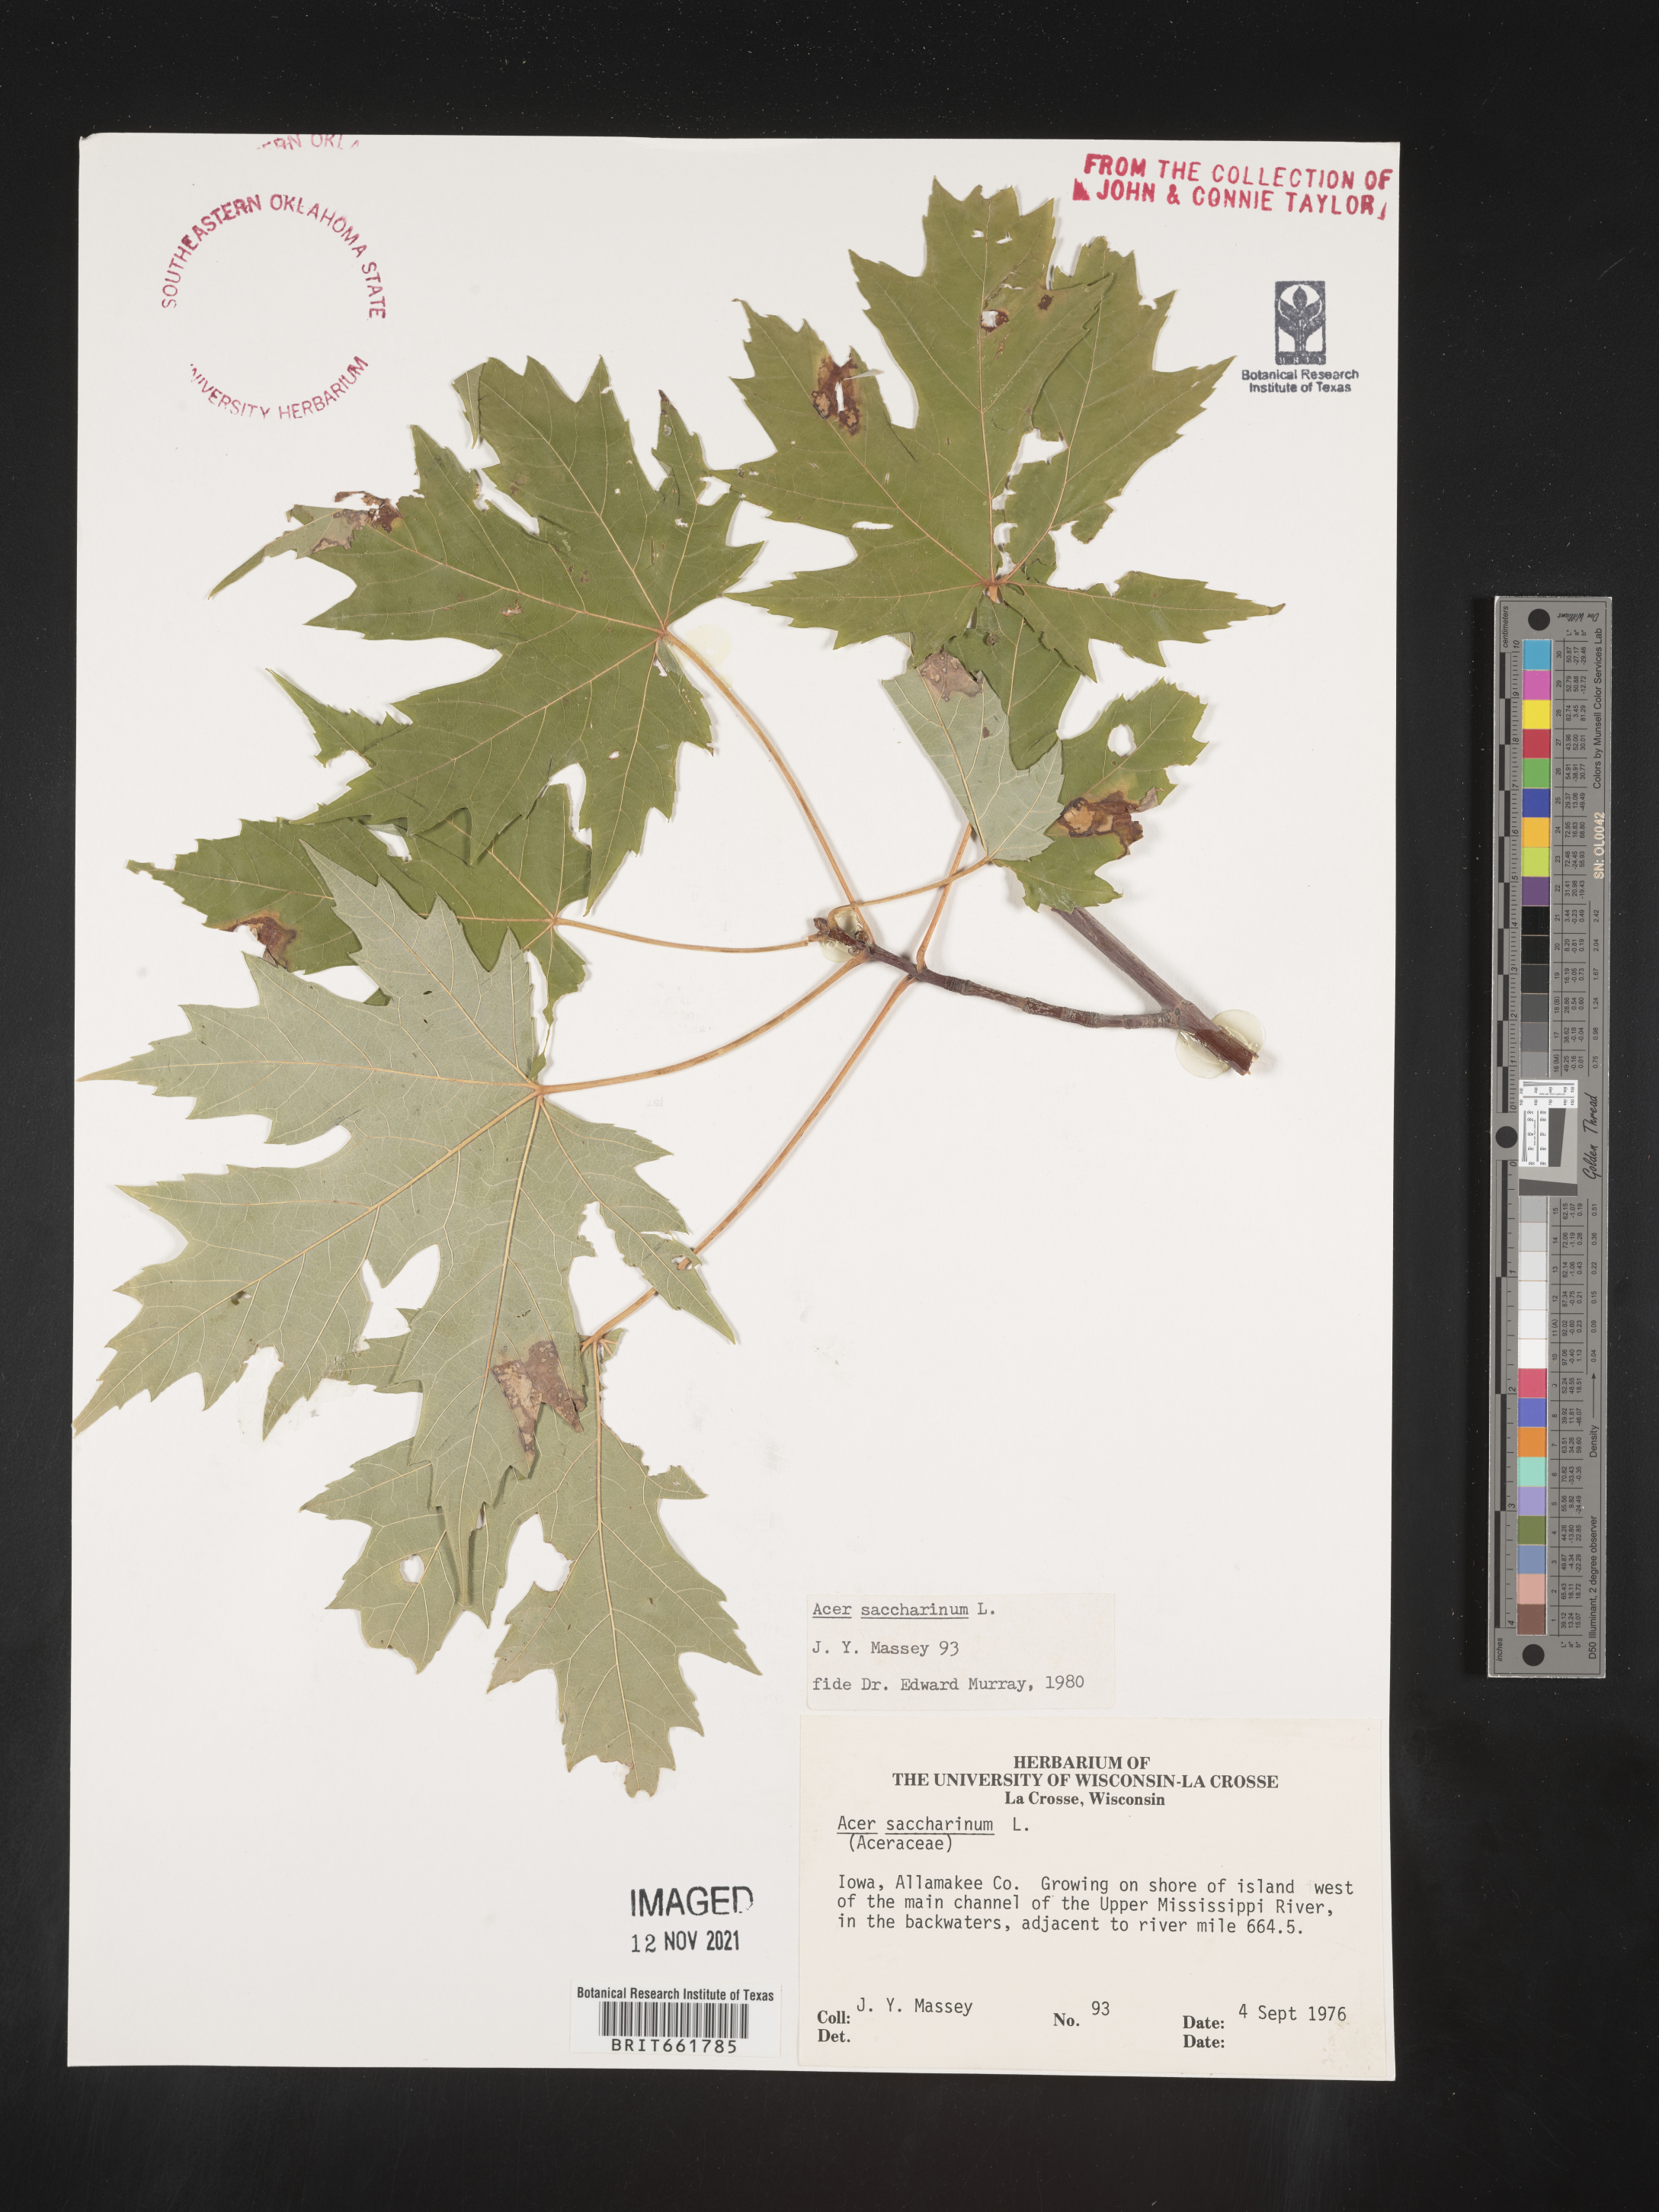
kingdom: Plantae
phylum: Tracheophyta
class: Magnoliopsida
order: Sapindales
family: Sapindaceae
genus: Acer
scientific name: Acer saccharinum
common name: Silver maple
